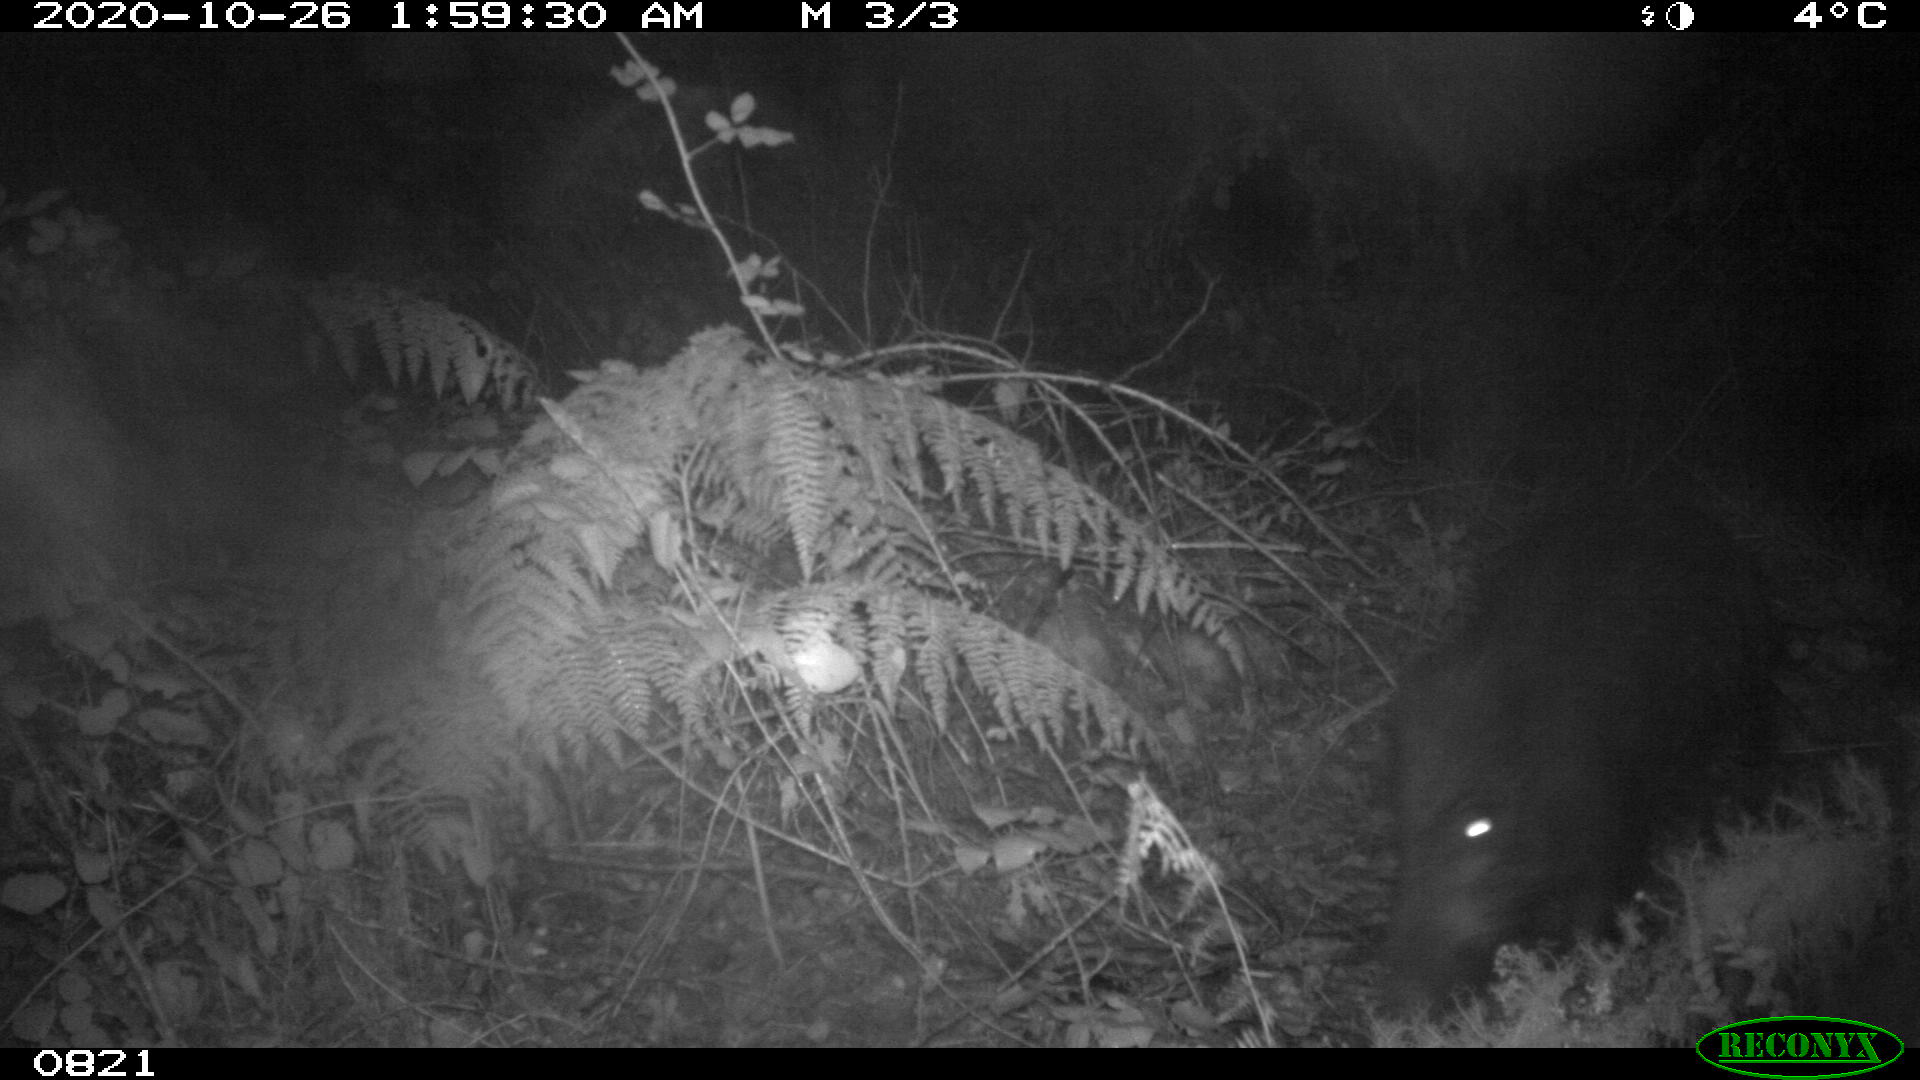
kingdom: Animalia
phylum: Chordata
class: Mammalia
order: Artiodactyla
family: Suidae
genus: Sus
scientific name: Sus scrofa
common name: Wild boar
